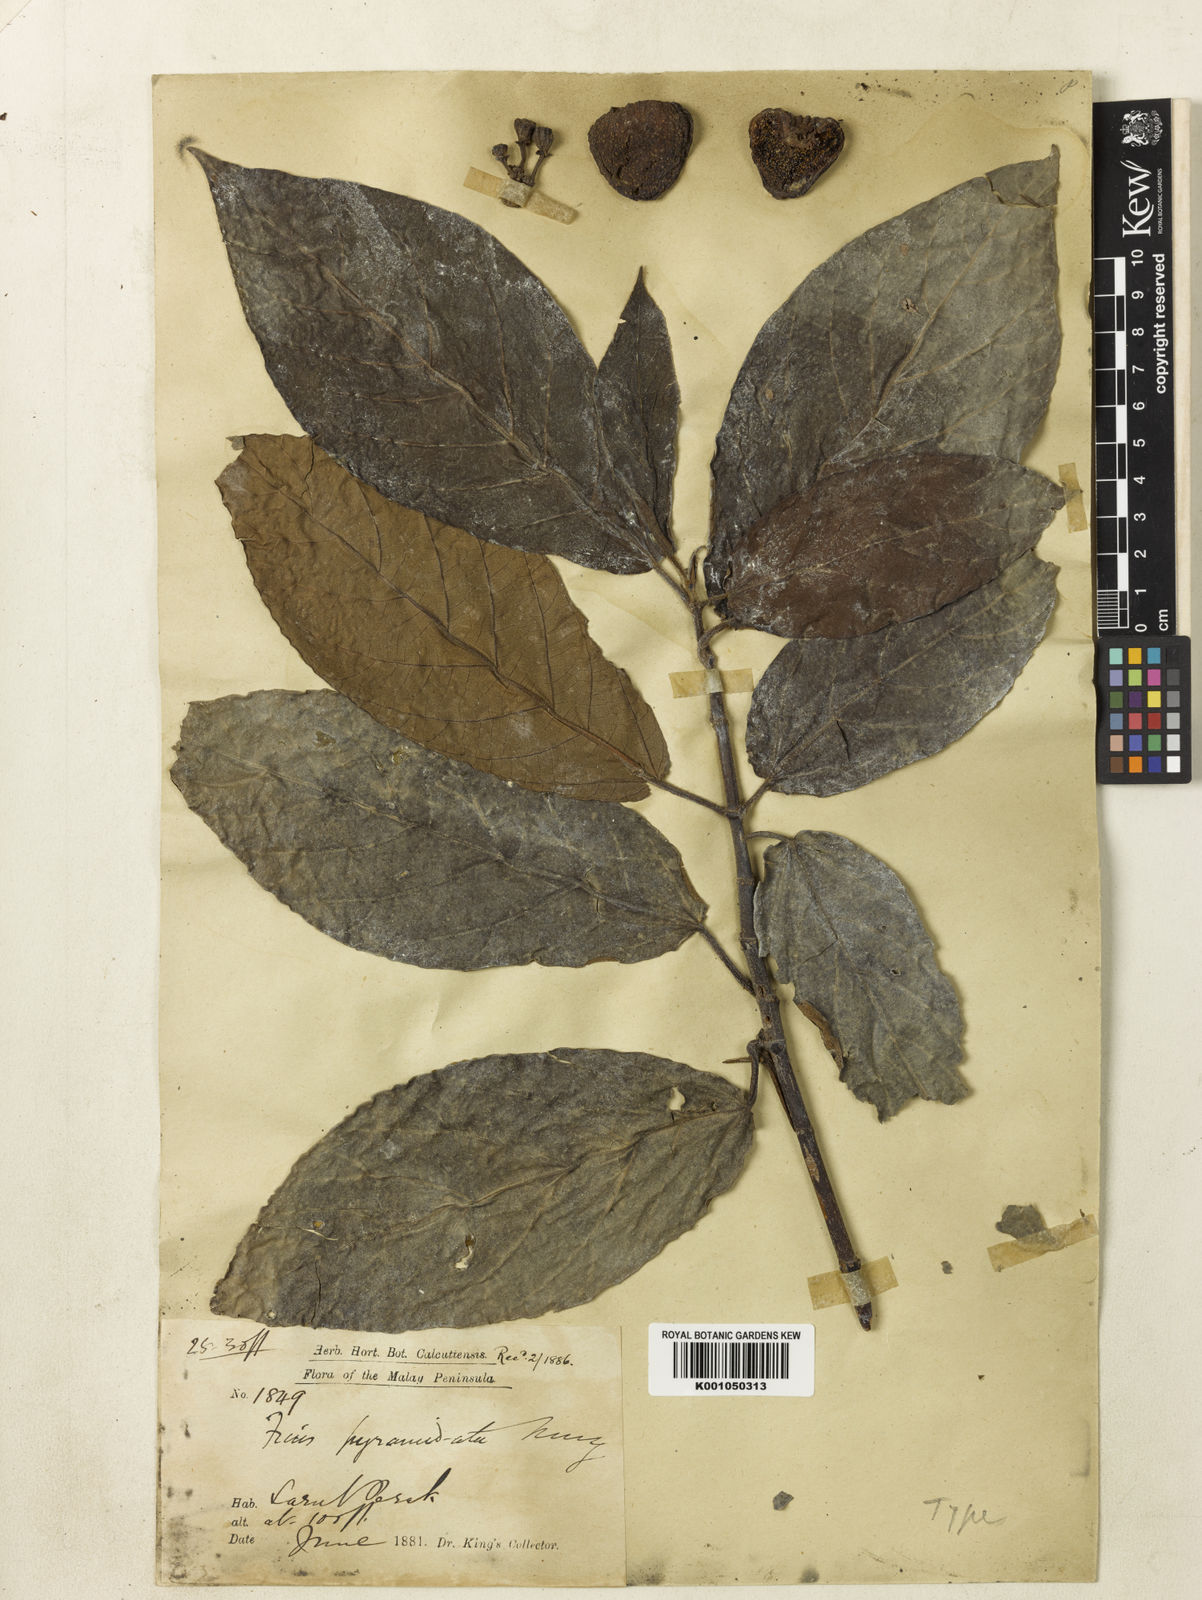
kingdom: Plantae
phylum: Tracheophyta
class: Magnoliopsida
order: Rosales
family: Moraceae
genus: Ficus
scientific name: Ficus obpyramidata
